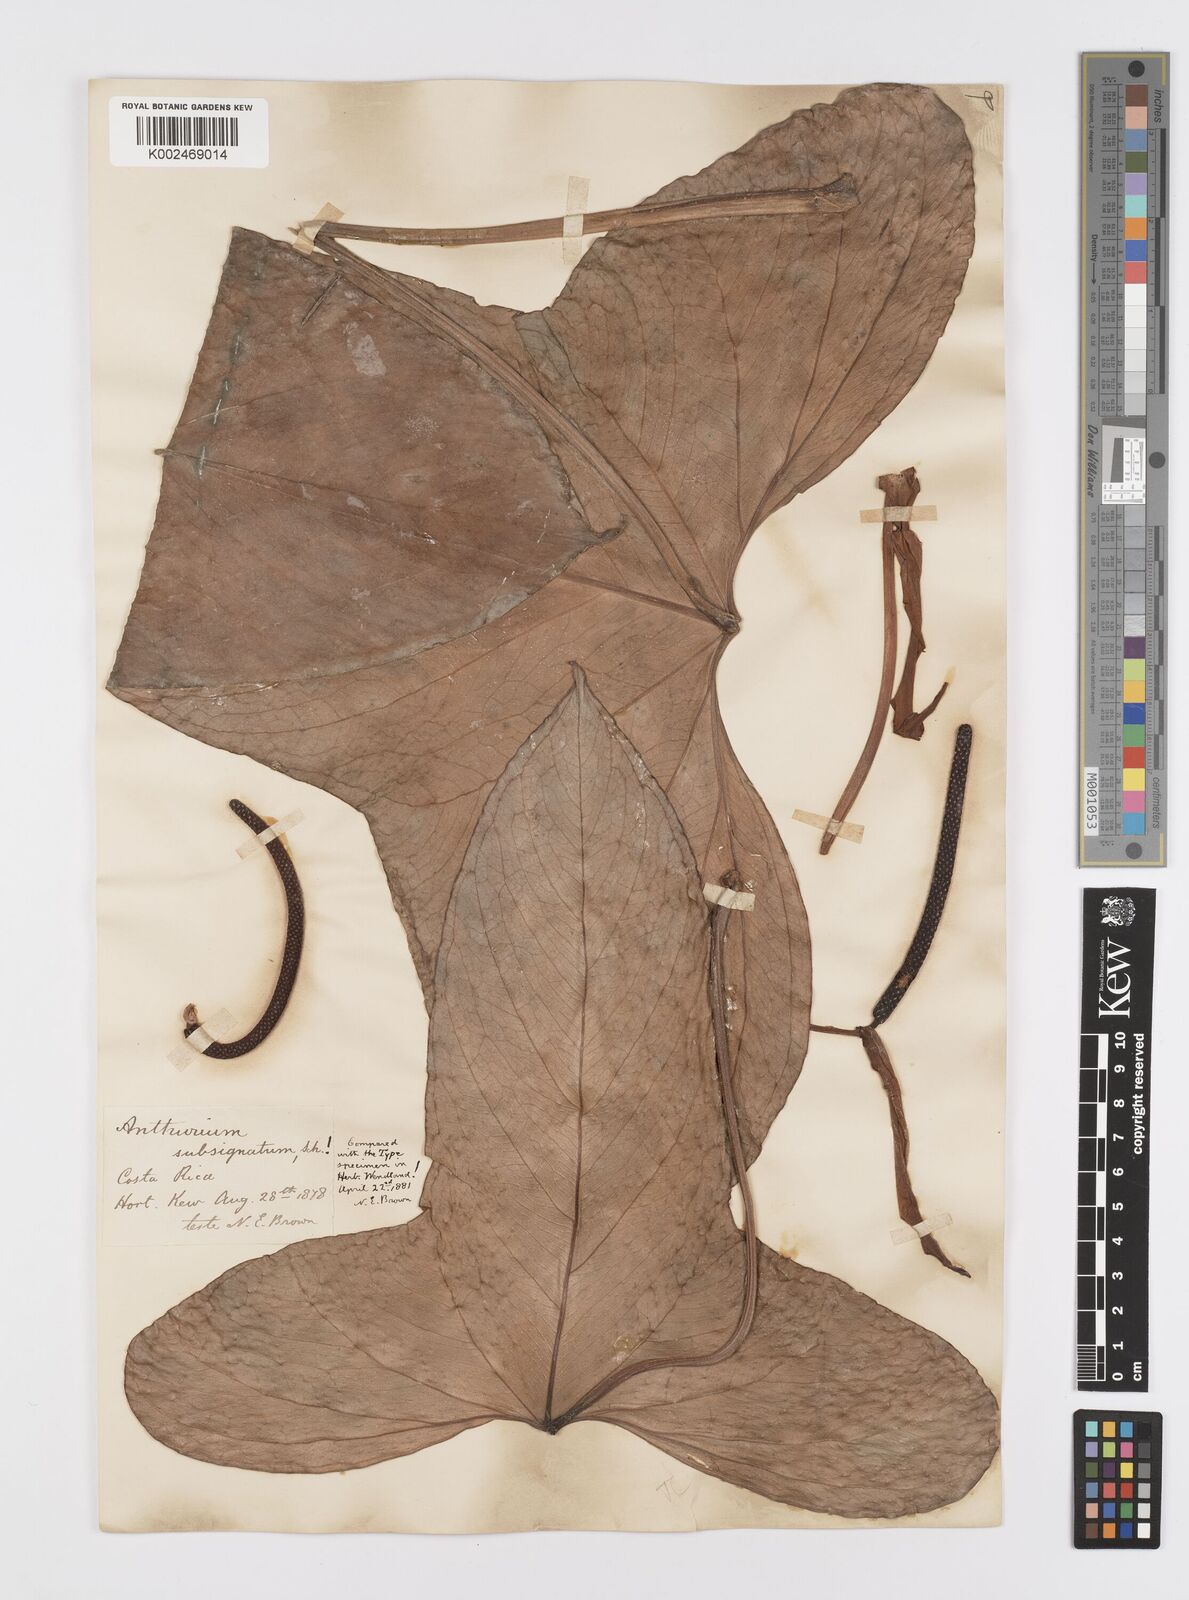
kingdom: Plantae
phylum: Tracheophyta
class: Liliopsida
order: Alismatales
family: Araceae
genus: Anthurium
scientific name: Anthurium subsignatum
